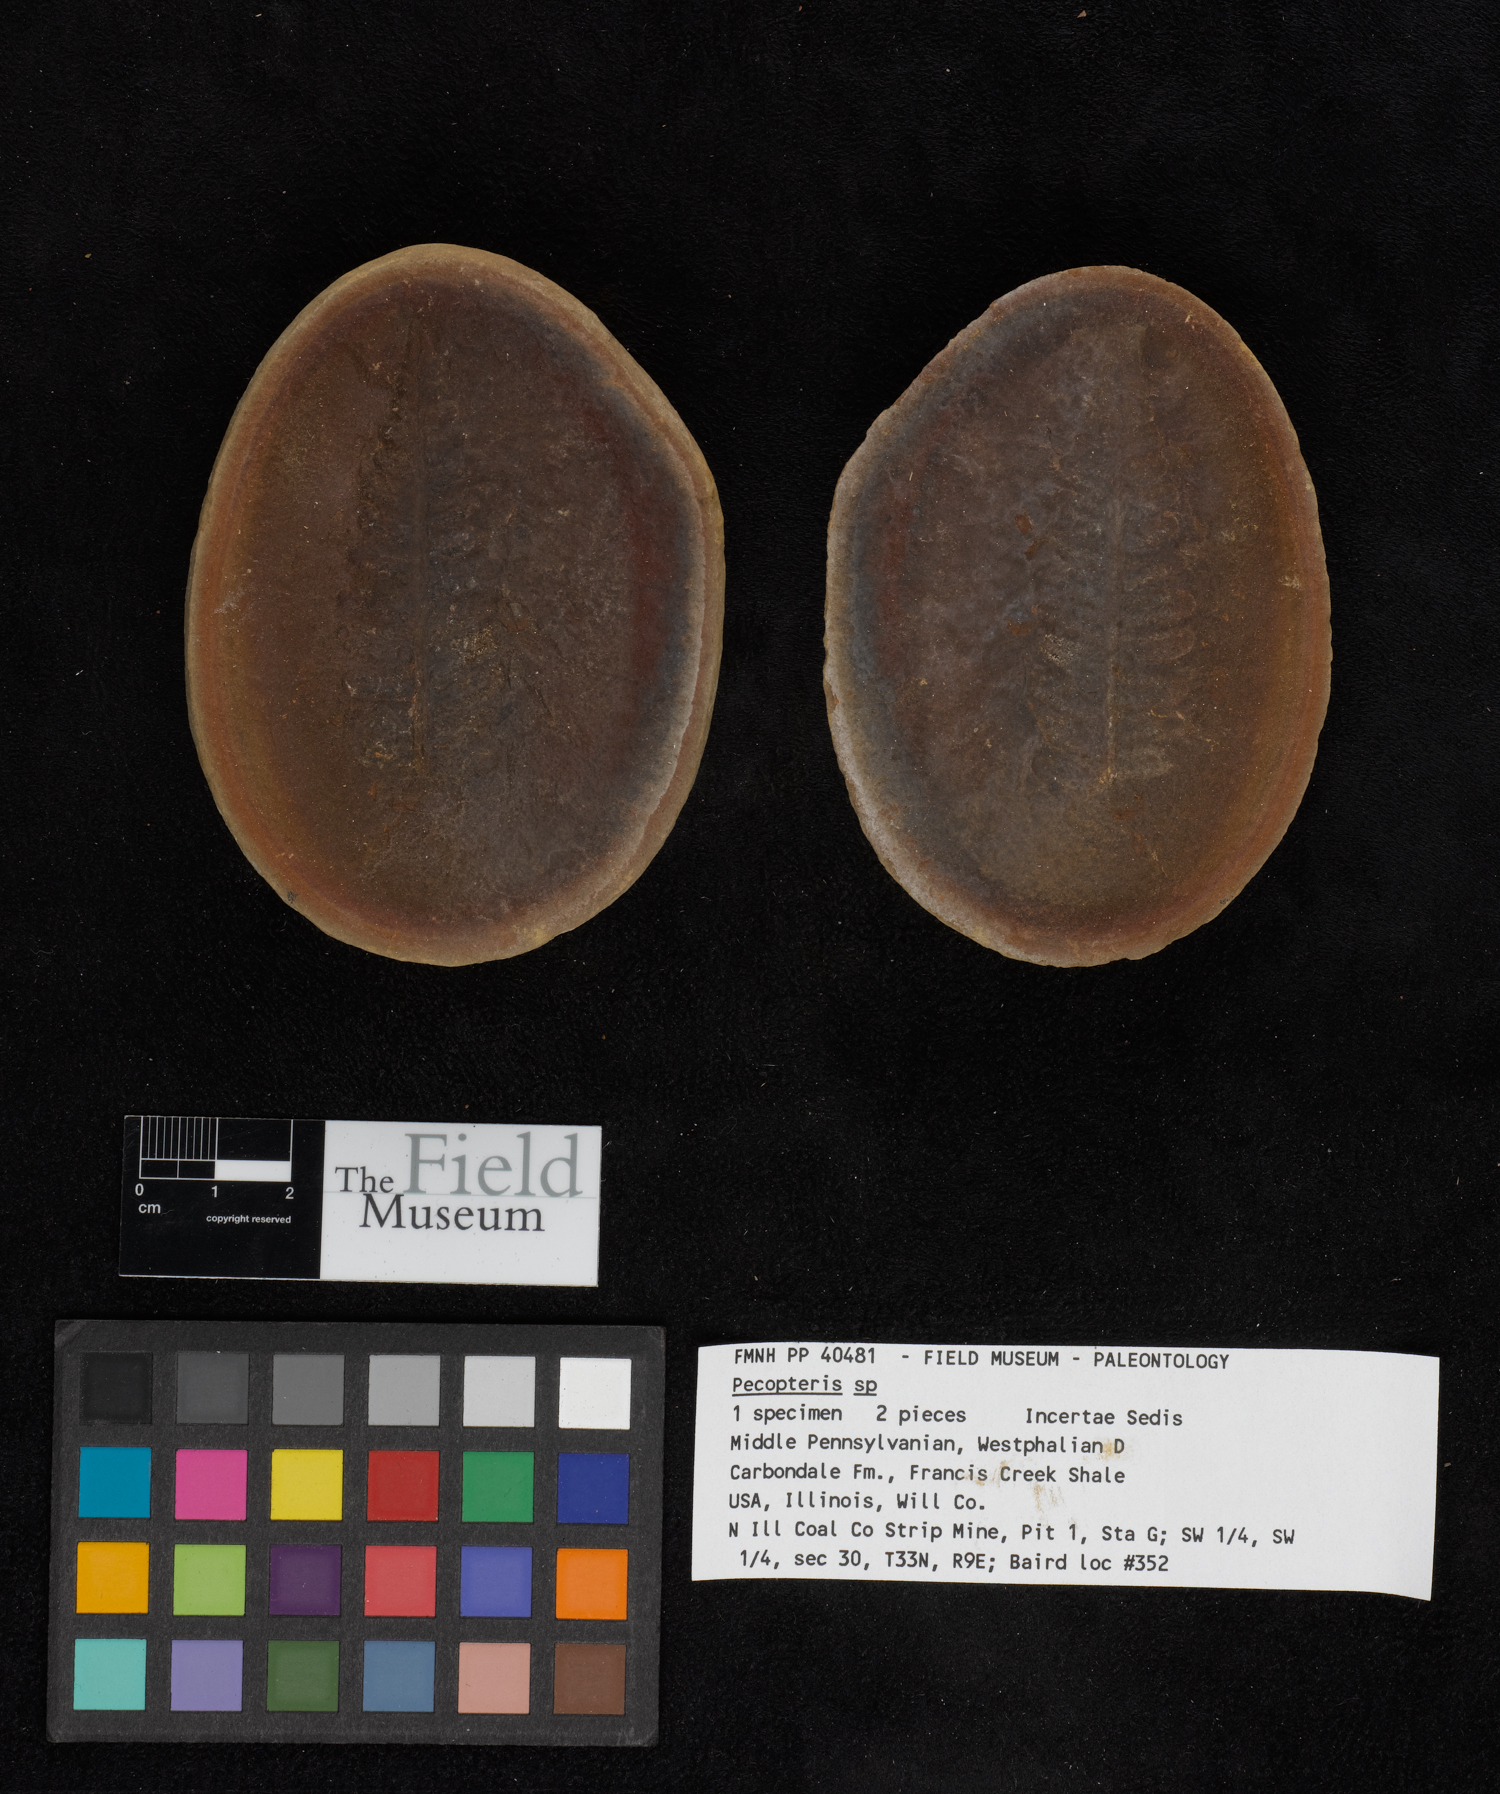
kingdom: Plantae
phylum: Tracheophyta
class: Polypodiopsida
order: Marattiales
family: Asterothecaceae
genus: Pecopteris
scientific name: Pecopteris
